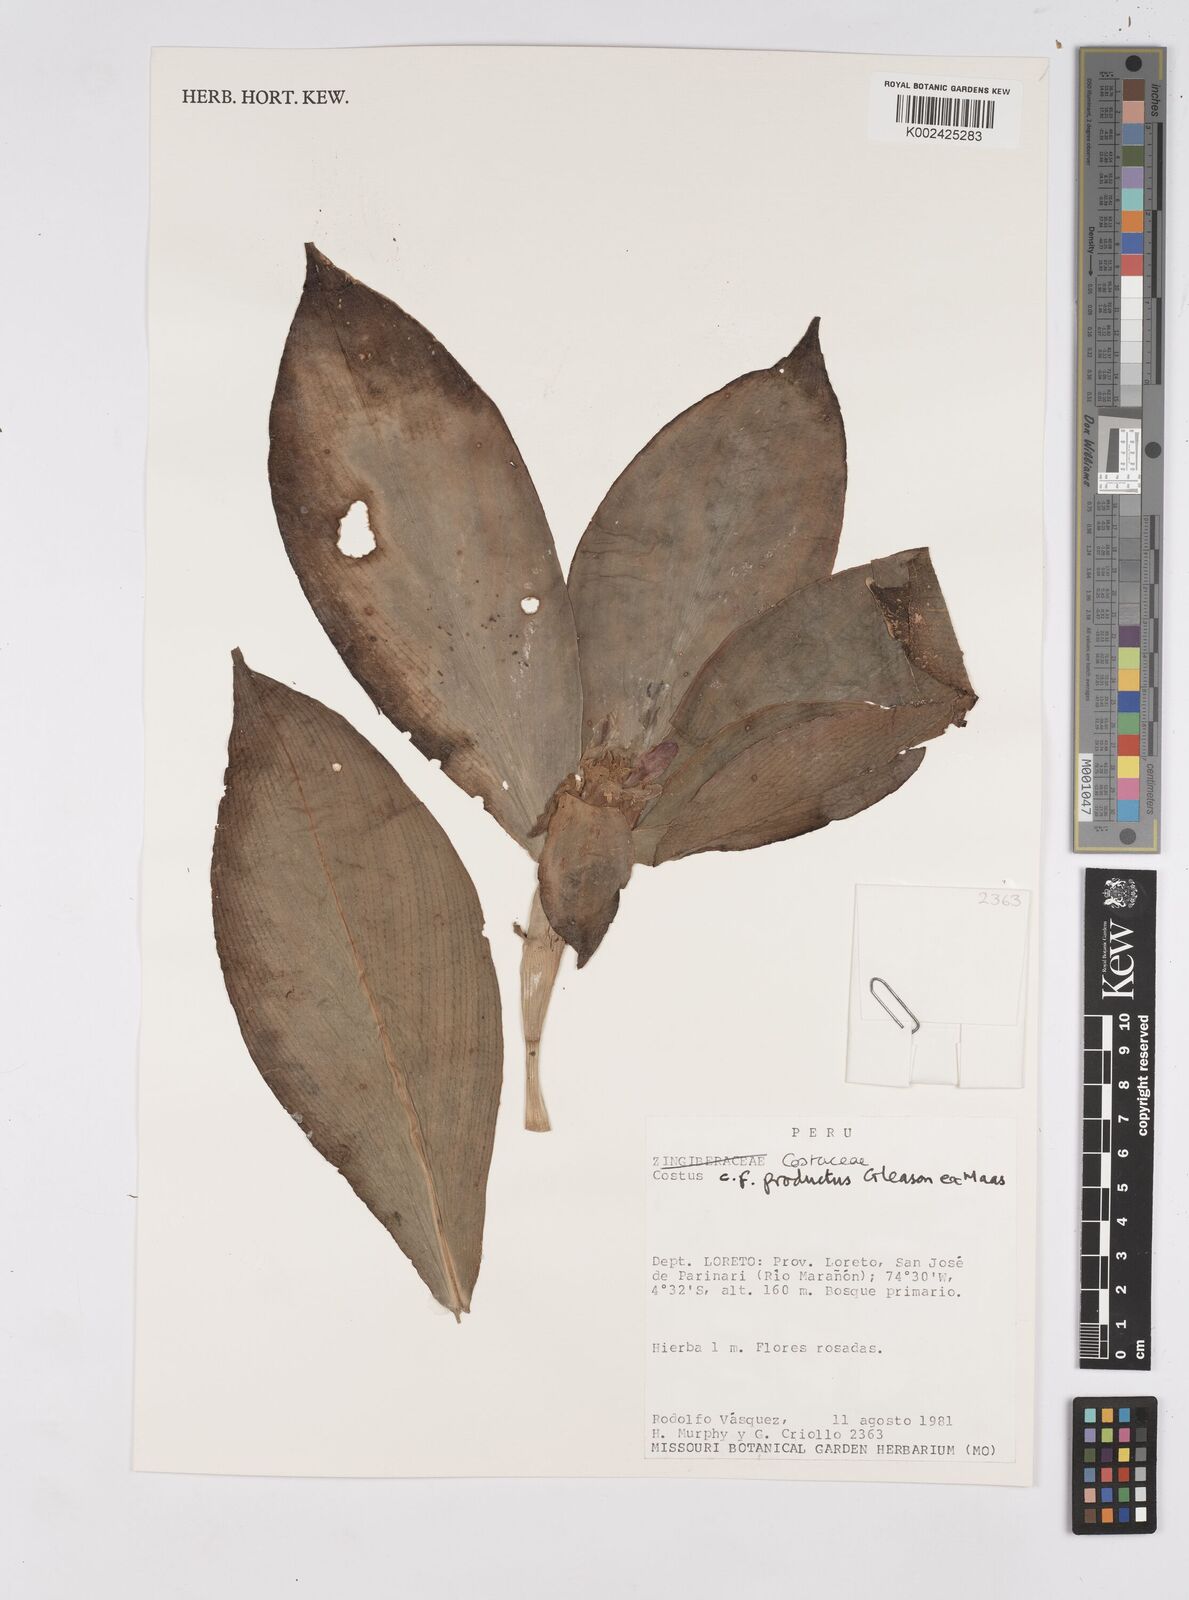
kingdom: Plantae
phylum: Tracheophyta
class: Liliopsida
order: Zingiberales
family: Costaceae
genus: Costus
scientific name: Costus productus
